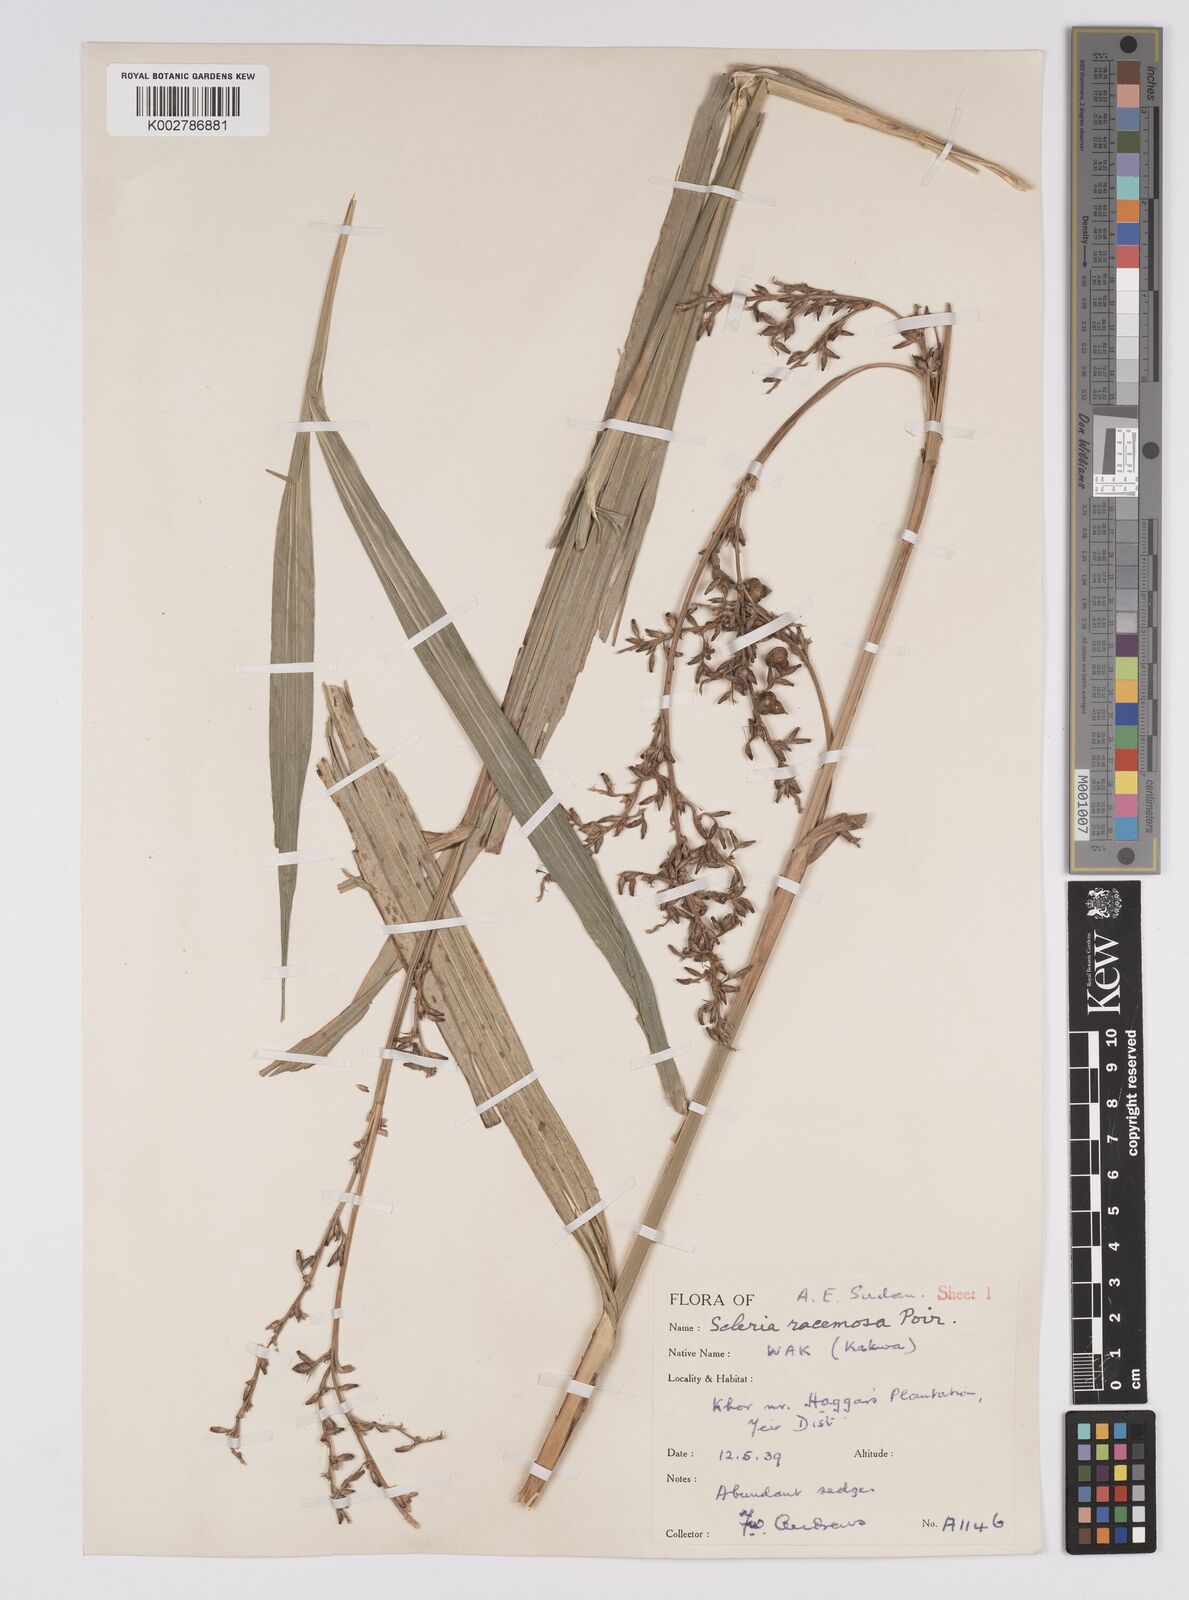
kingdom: Plantae
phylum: Tracheophyta
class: Liliopsida
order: Poales
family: Cyperaceae
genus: Scleria
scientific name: Scleria racemosa
